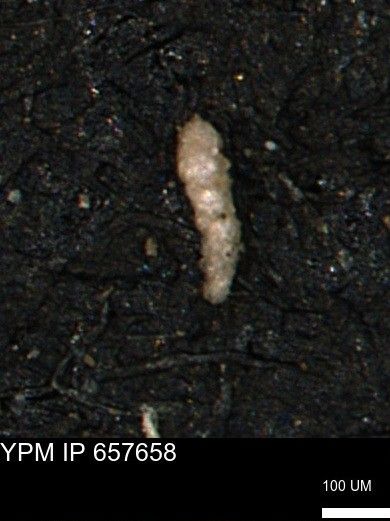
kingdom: Chromista
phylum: Foraminifera
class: Globothalamea
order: Lituolida
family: Verneuilinidae
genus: Verneuilinoides
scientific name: Verneuilinoides kansasensis
